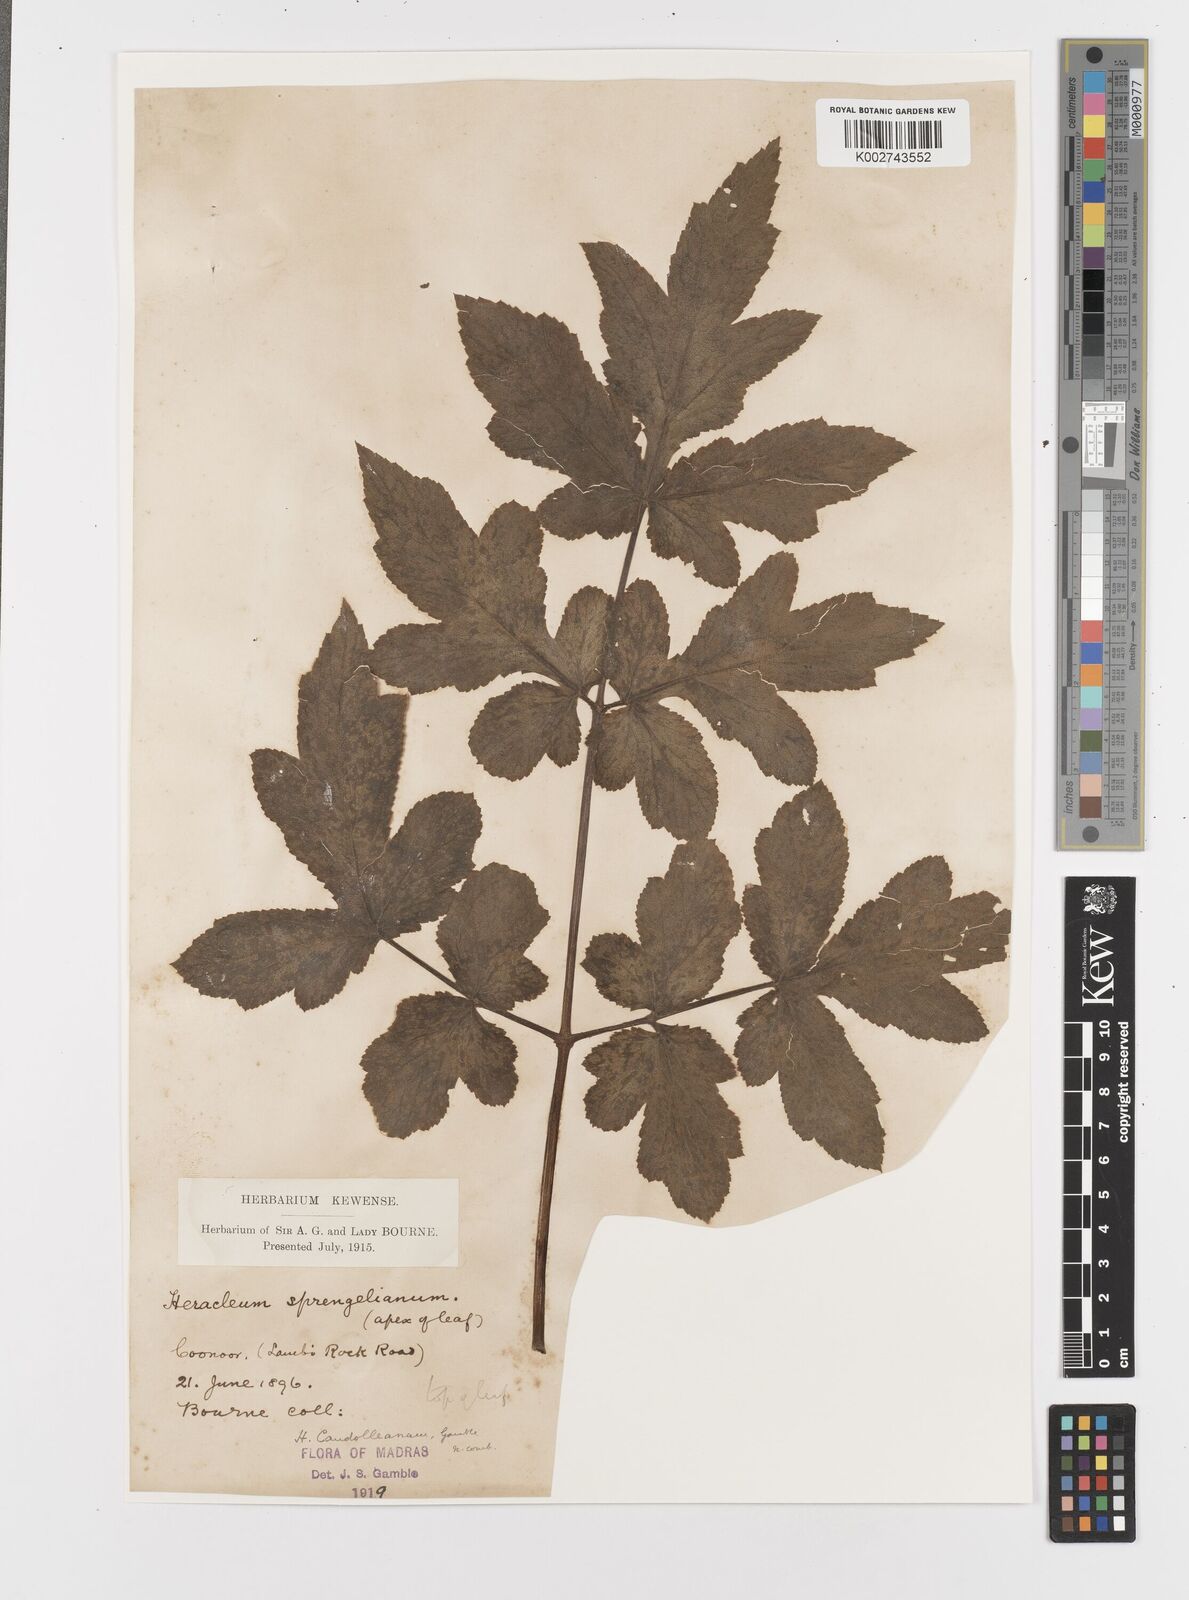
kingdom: Plantae
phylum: Tracheophyta
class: Magnoliopsida
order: Apiales
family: Apiaceae
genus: Tetrataenium
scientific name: Tetrataenium rigens
